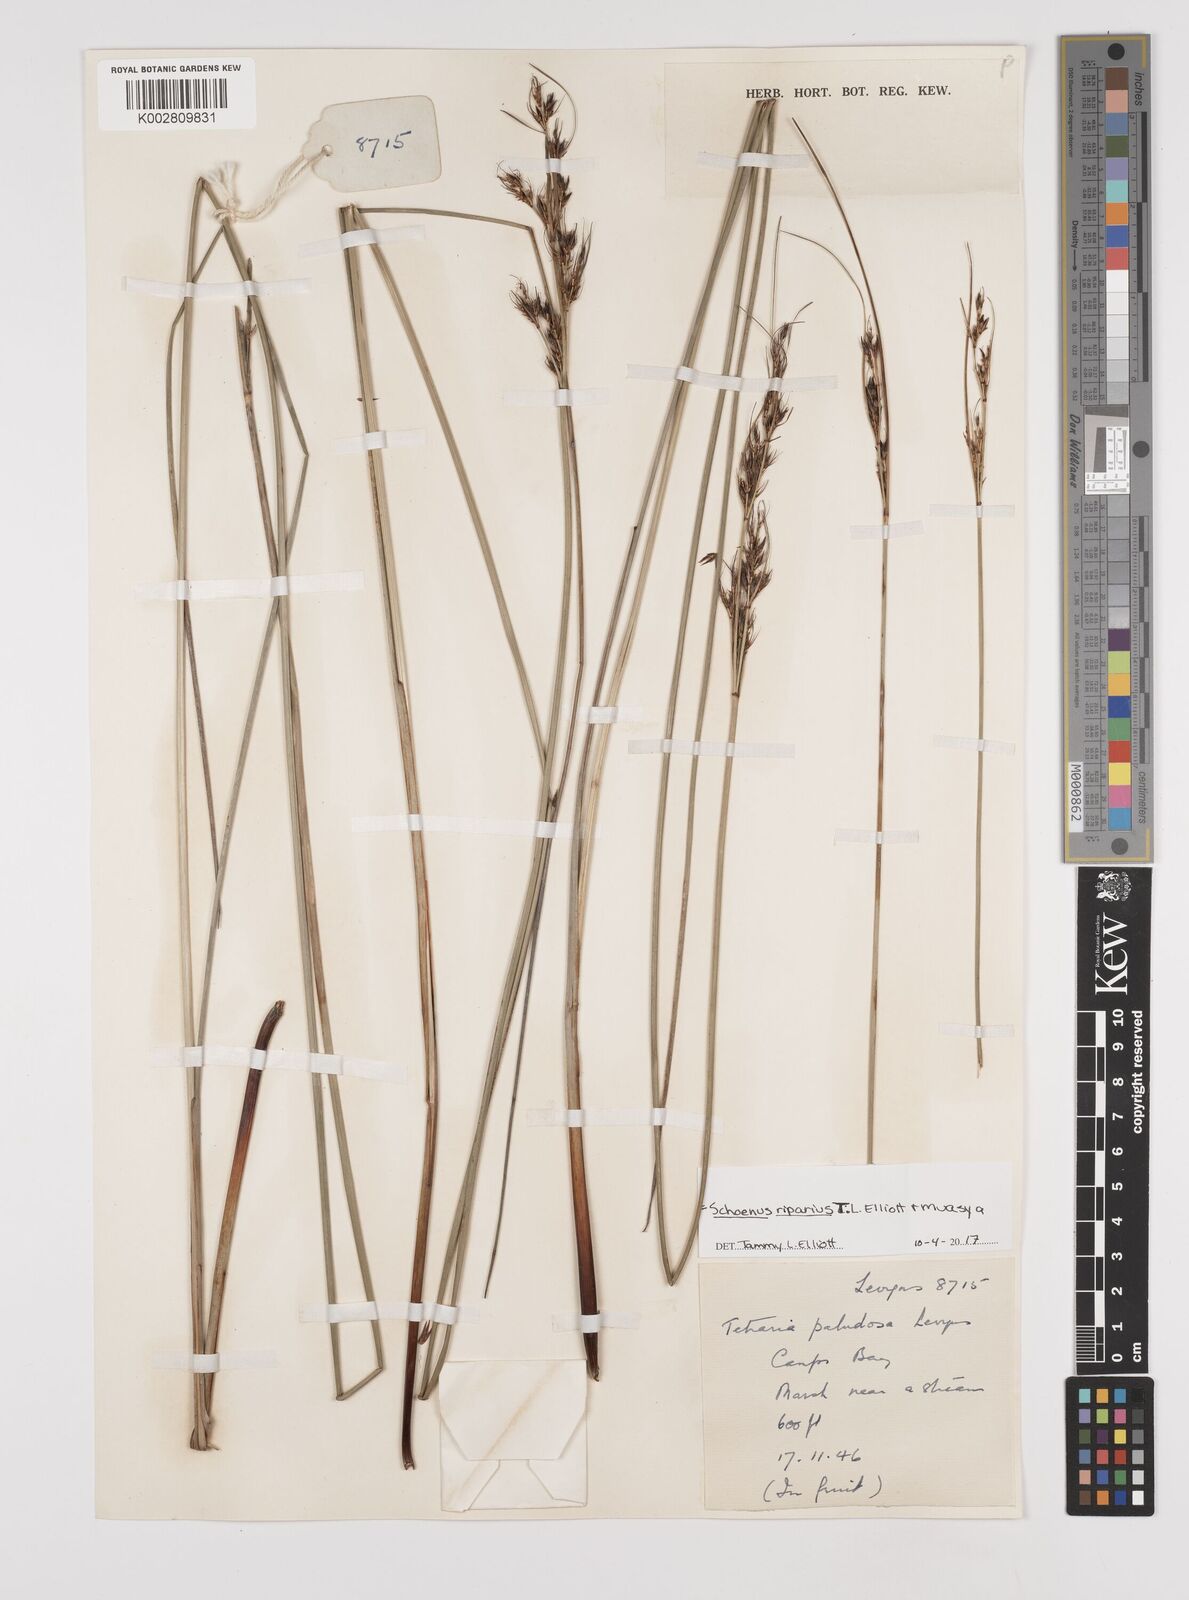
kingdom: Plantae
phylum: Tracheophyta
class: Liliopsida
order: Poales
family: Cyperaceae
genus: Schoenus
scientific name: Schoenus riparius
